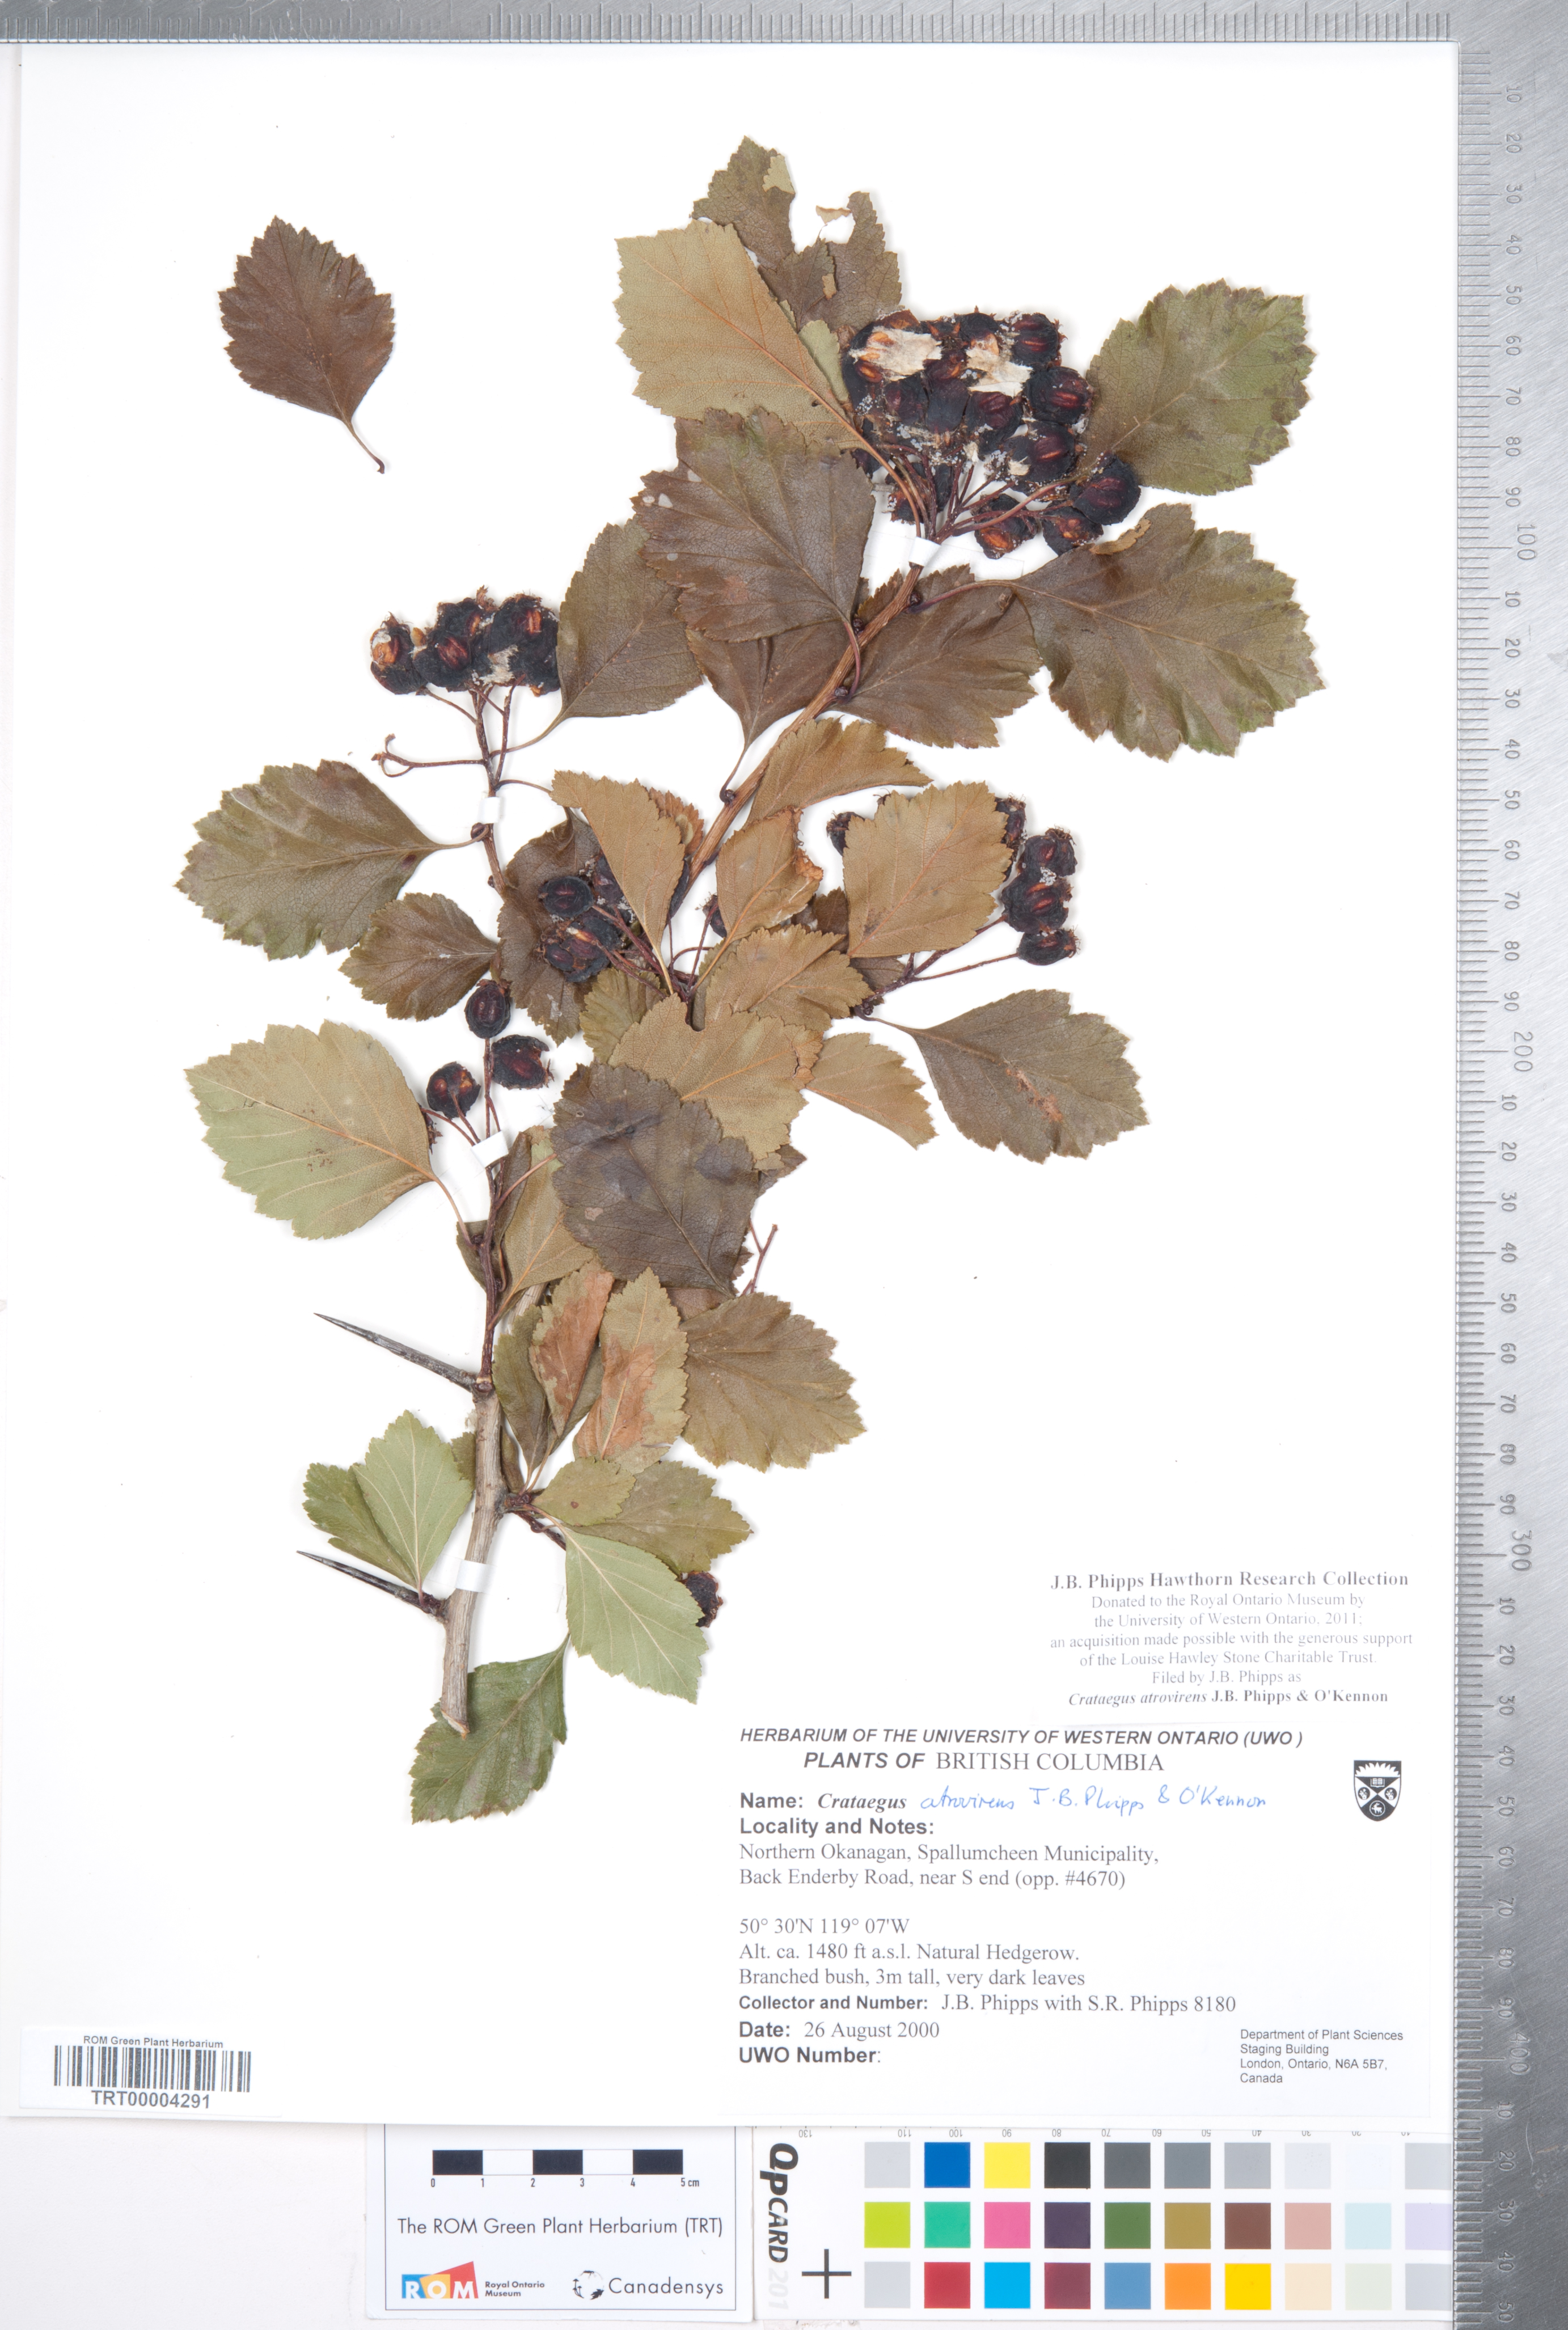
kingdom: Plantae
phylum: Tracheophyta
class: Magnoliopsida
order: Rosales
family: Rosaceae
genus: Crataegus
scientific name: Crataegus atrovirens
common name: Dark green hawthorn
